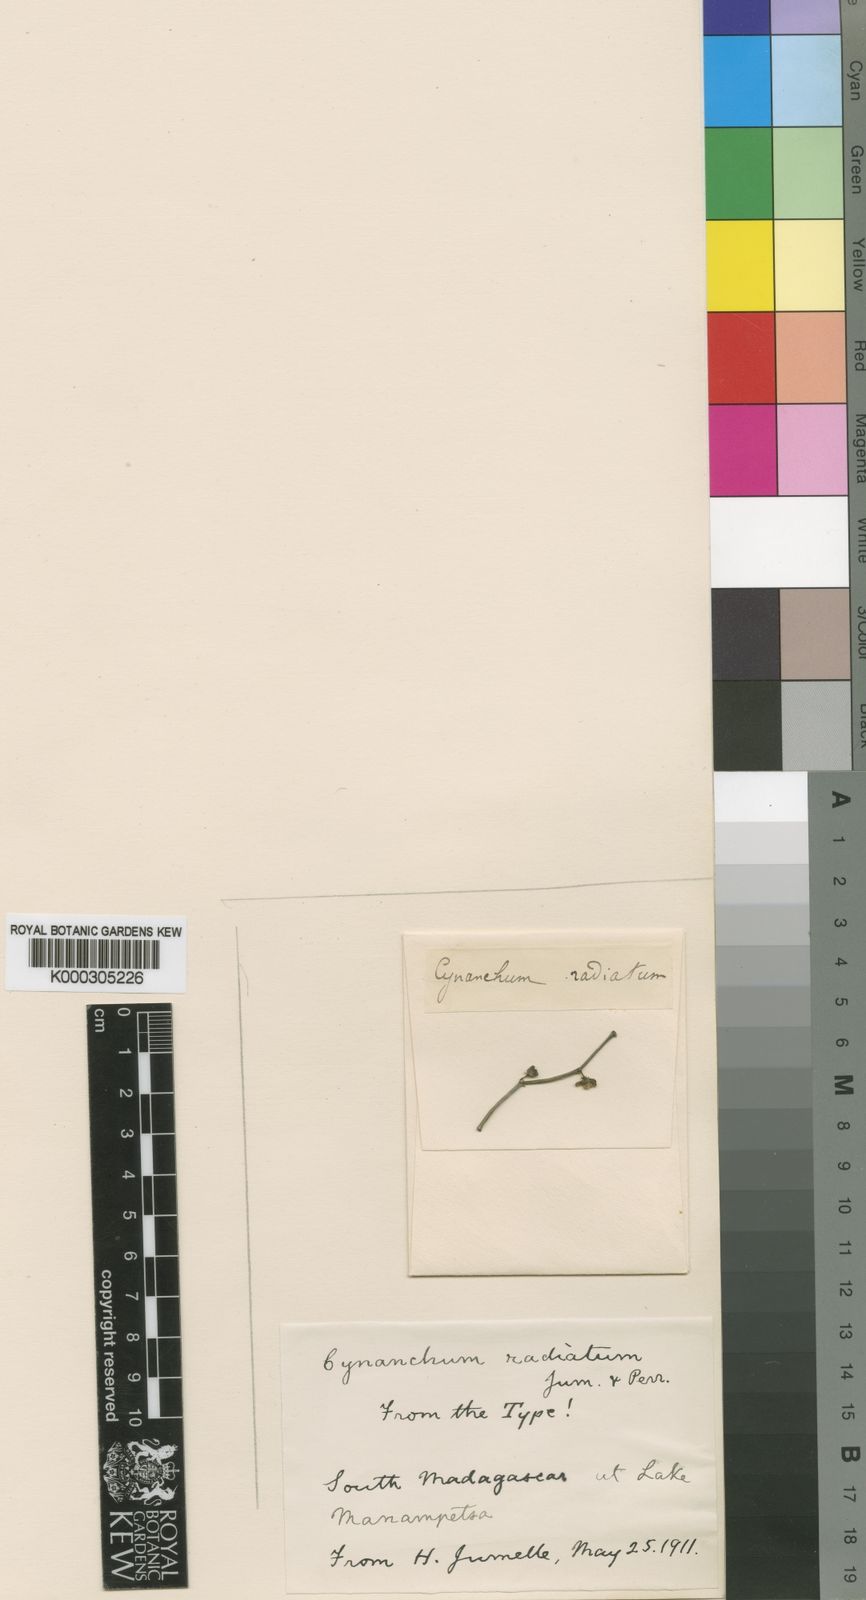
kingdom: Plantae
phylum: Tracheophyta
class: Magnoliopsida
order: Gentianales
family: Apocynaceae
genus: Cynanchum
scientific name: Cynanchum radiatum
